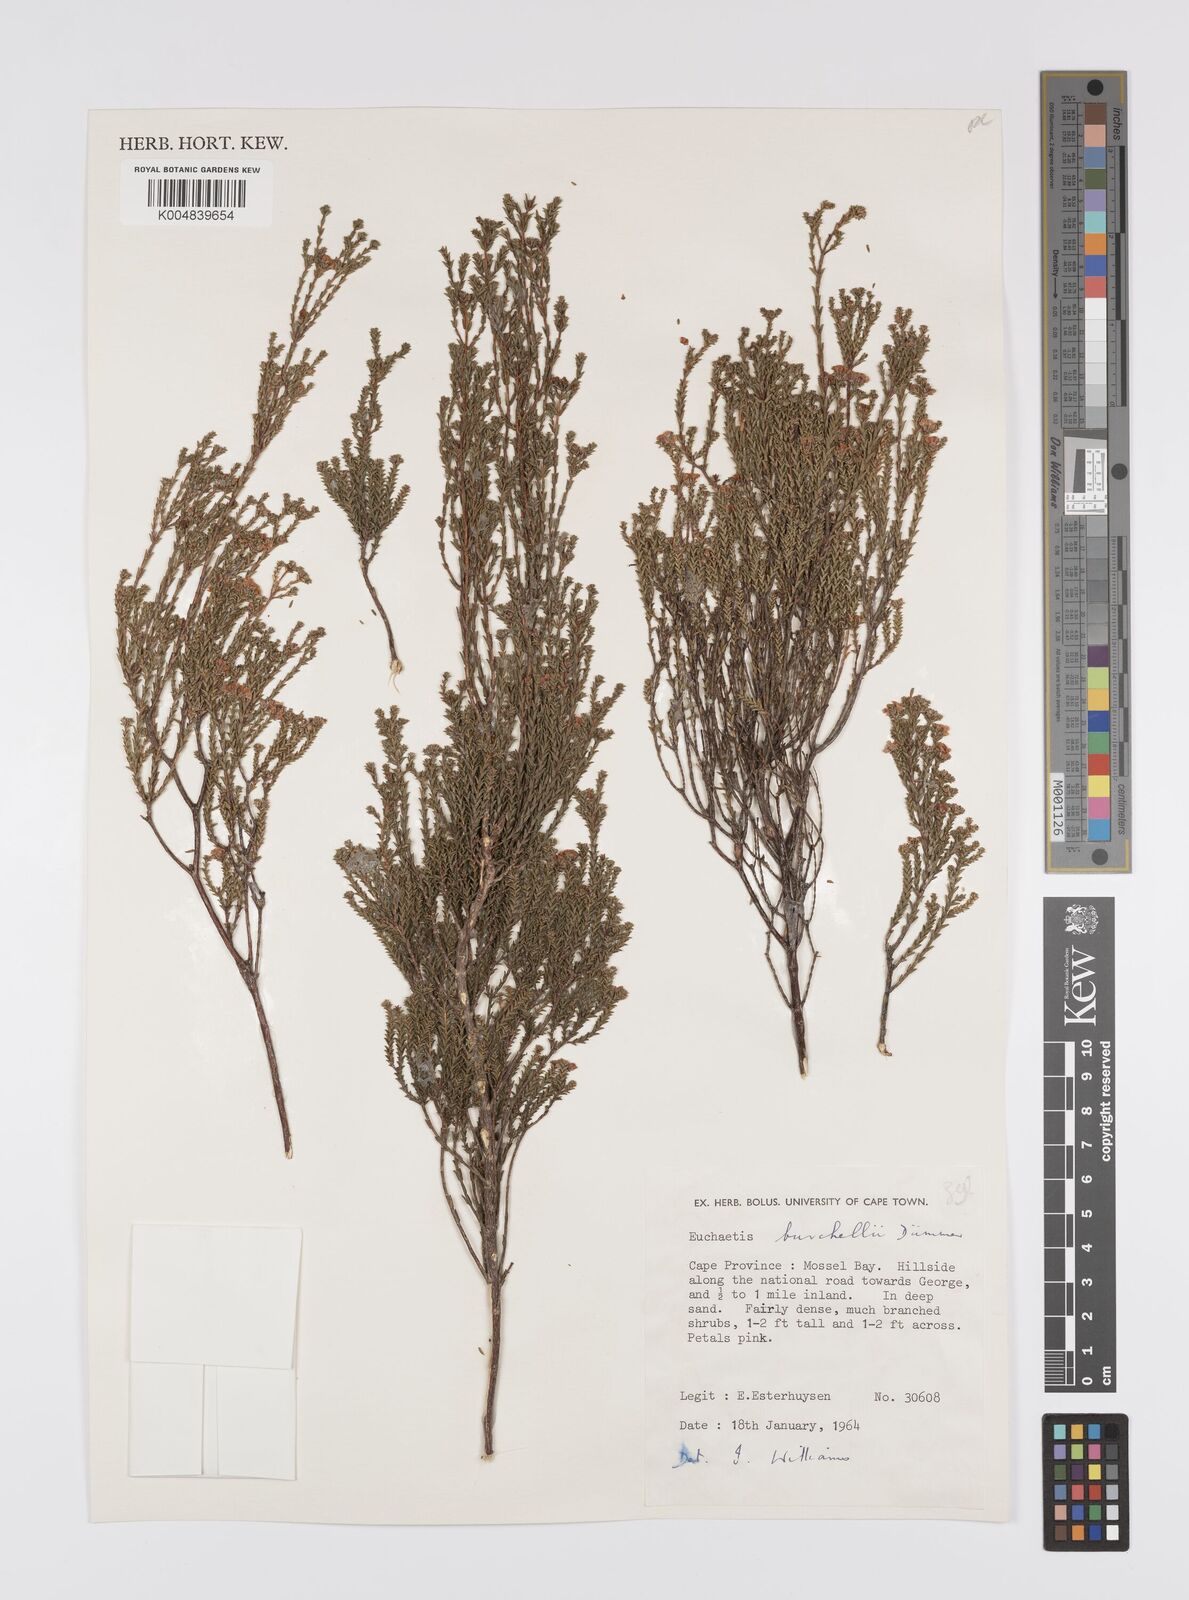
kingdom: Plantae
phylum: Tracheophyta
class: Magnoliopsida
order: Sapindales
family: Rutaceae
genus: Euchaetis
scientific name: Euchaetis burchellii
